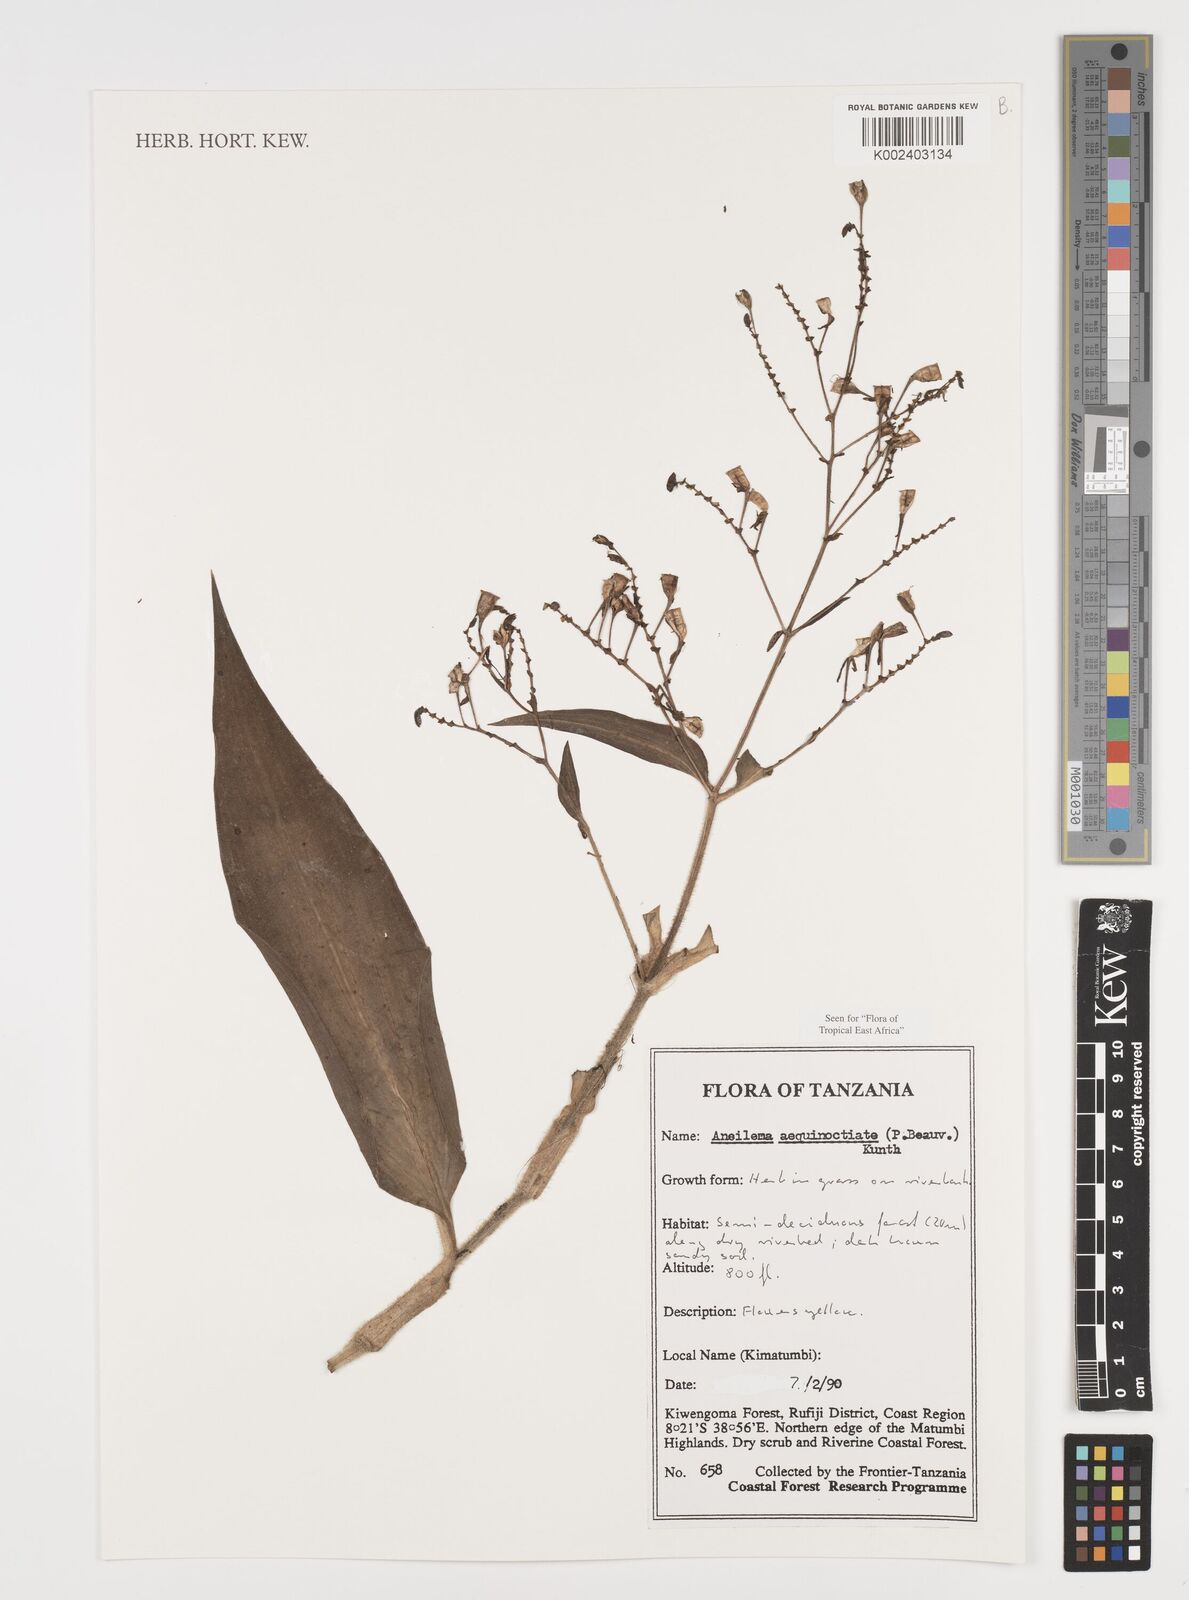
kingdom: Plantae
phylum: Tracheophyta
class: Liliopsida
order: Commelinales
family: Commelinaceae
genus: Aneilema
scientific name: Aneilema aequinoctiale
